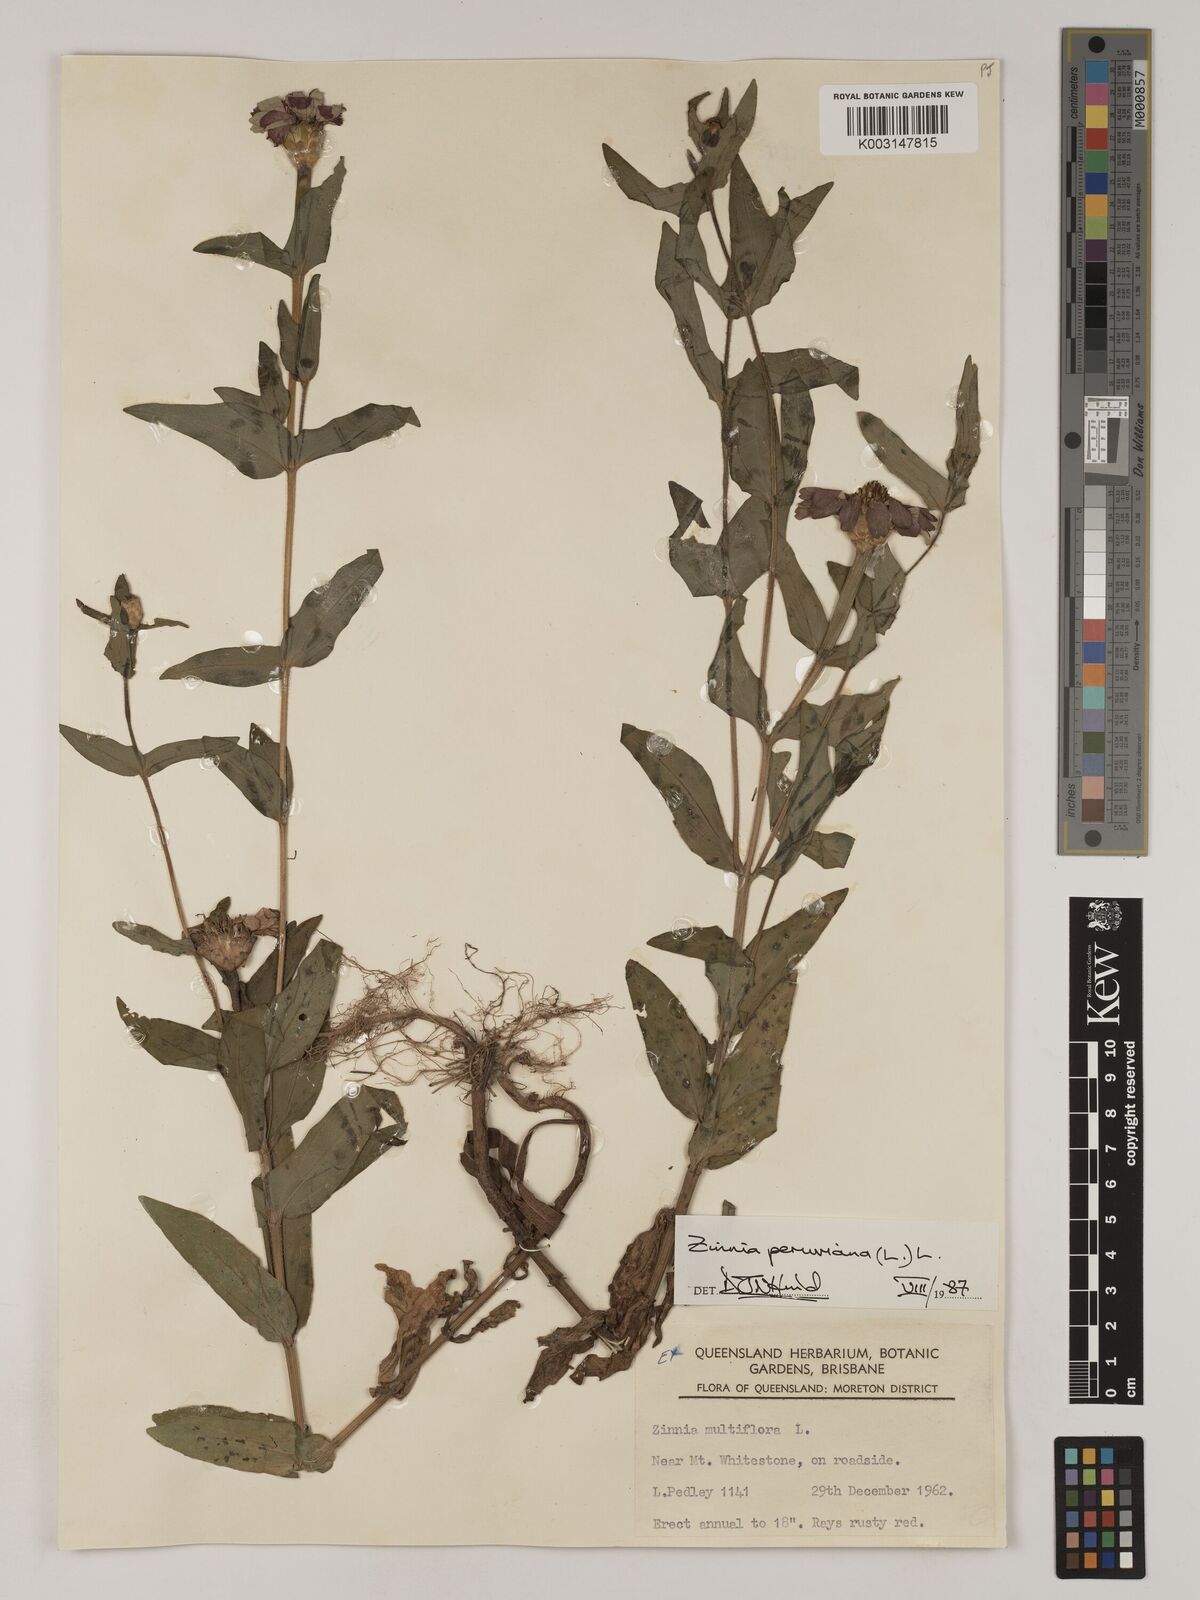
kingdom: Plantae
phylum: Tracheophyta
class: Magnoliopsida
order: Asterales
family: Asteraceae
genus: Zinnia
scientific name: Zinnia peruviana
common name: Peruvian zinnia
